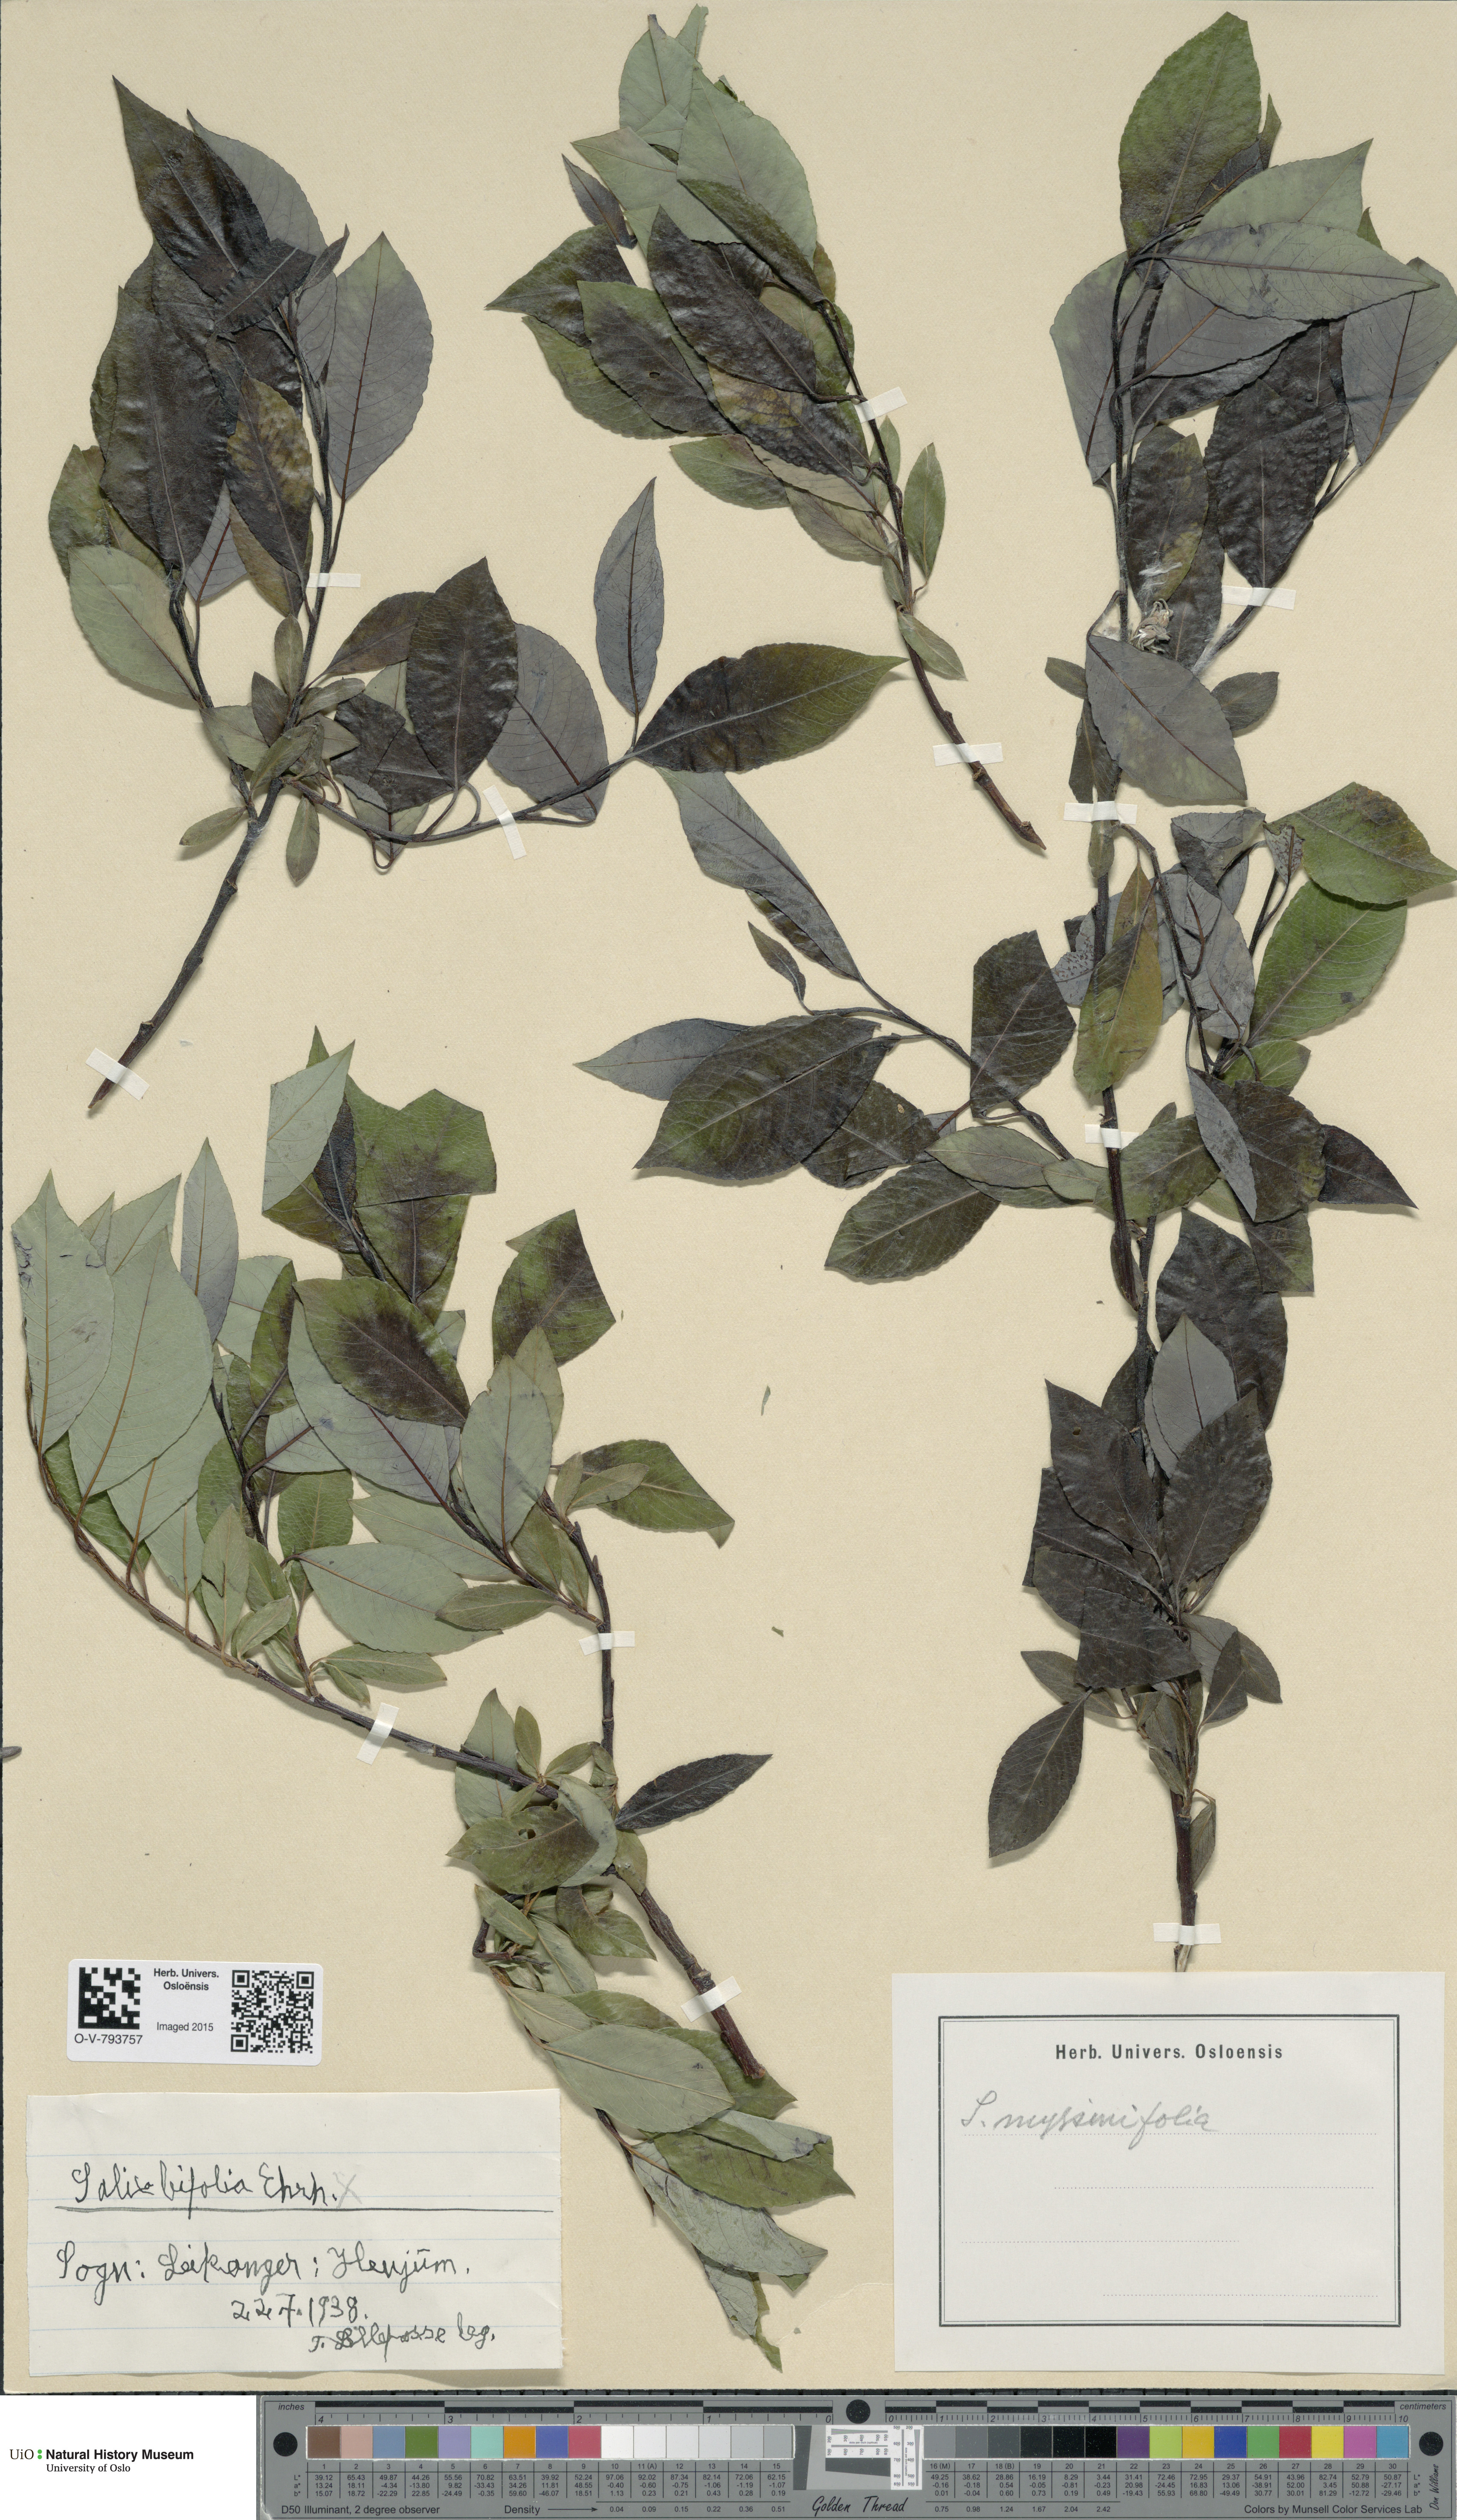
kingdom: Plantae
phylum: Tracheophyta
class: Magnoliopsida
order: Malpighiales
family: Salicaceae
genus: Salix
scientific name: Salix myrsinifolia
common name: Dark-leaved willow
